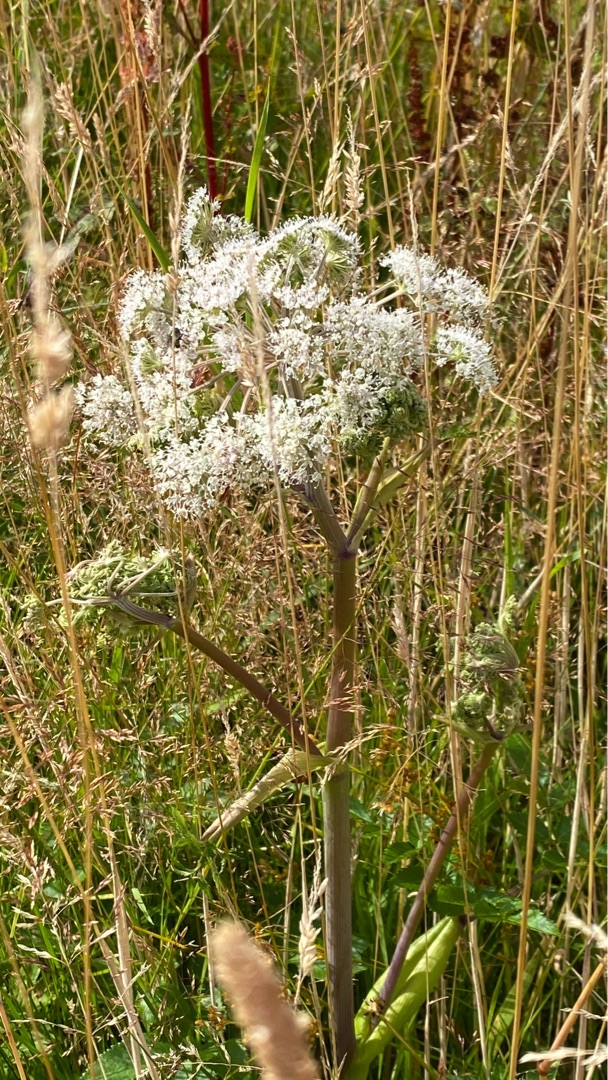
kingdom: Plantae
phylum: Tracheophyta
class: Magnoliopsida
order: Apiales
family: Apiaceae
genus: Angelica
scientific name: Angelica sylvestris
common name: Angelik
